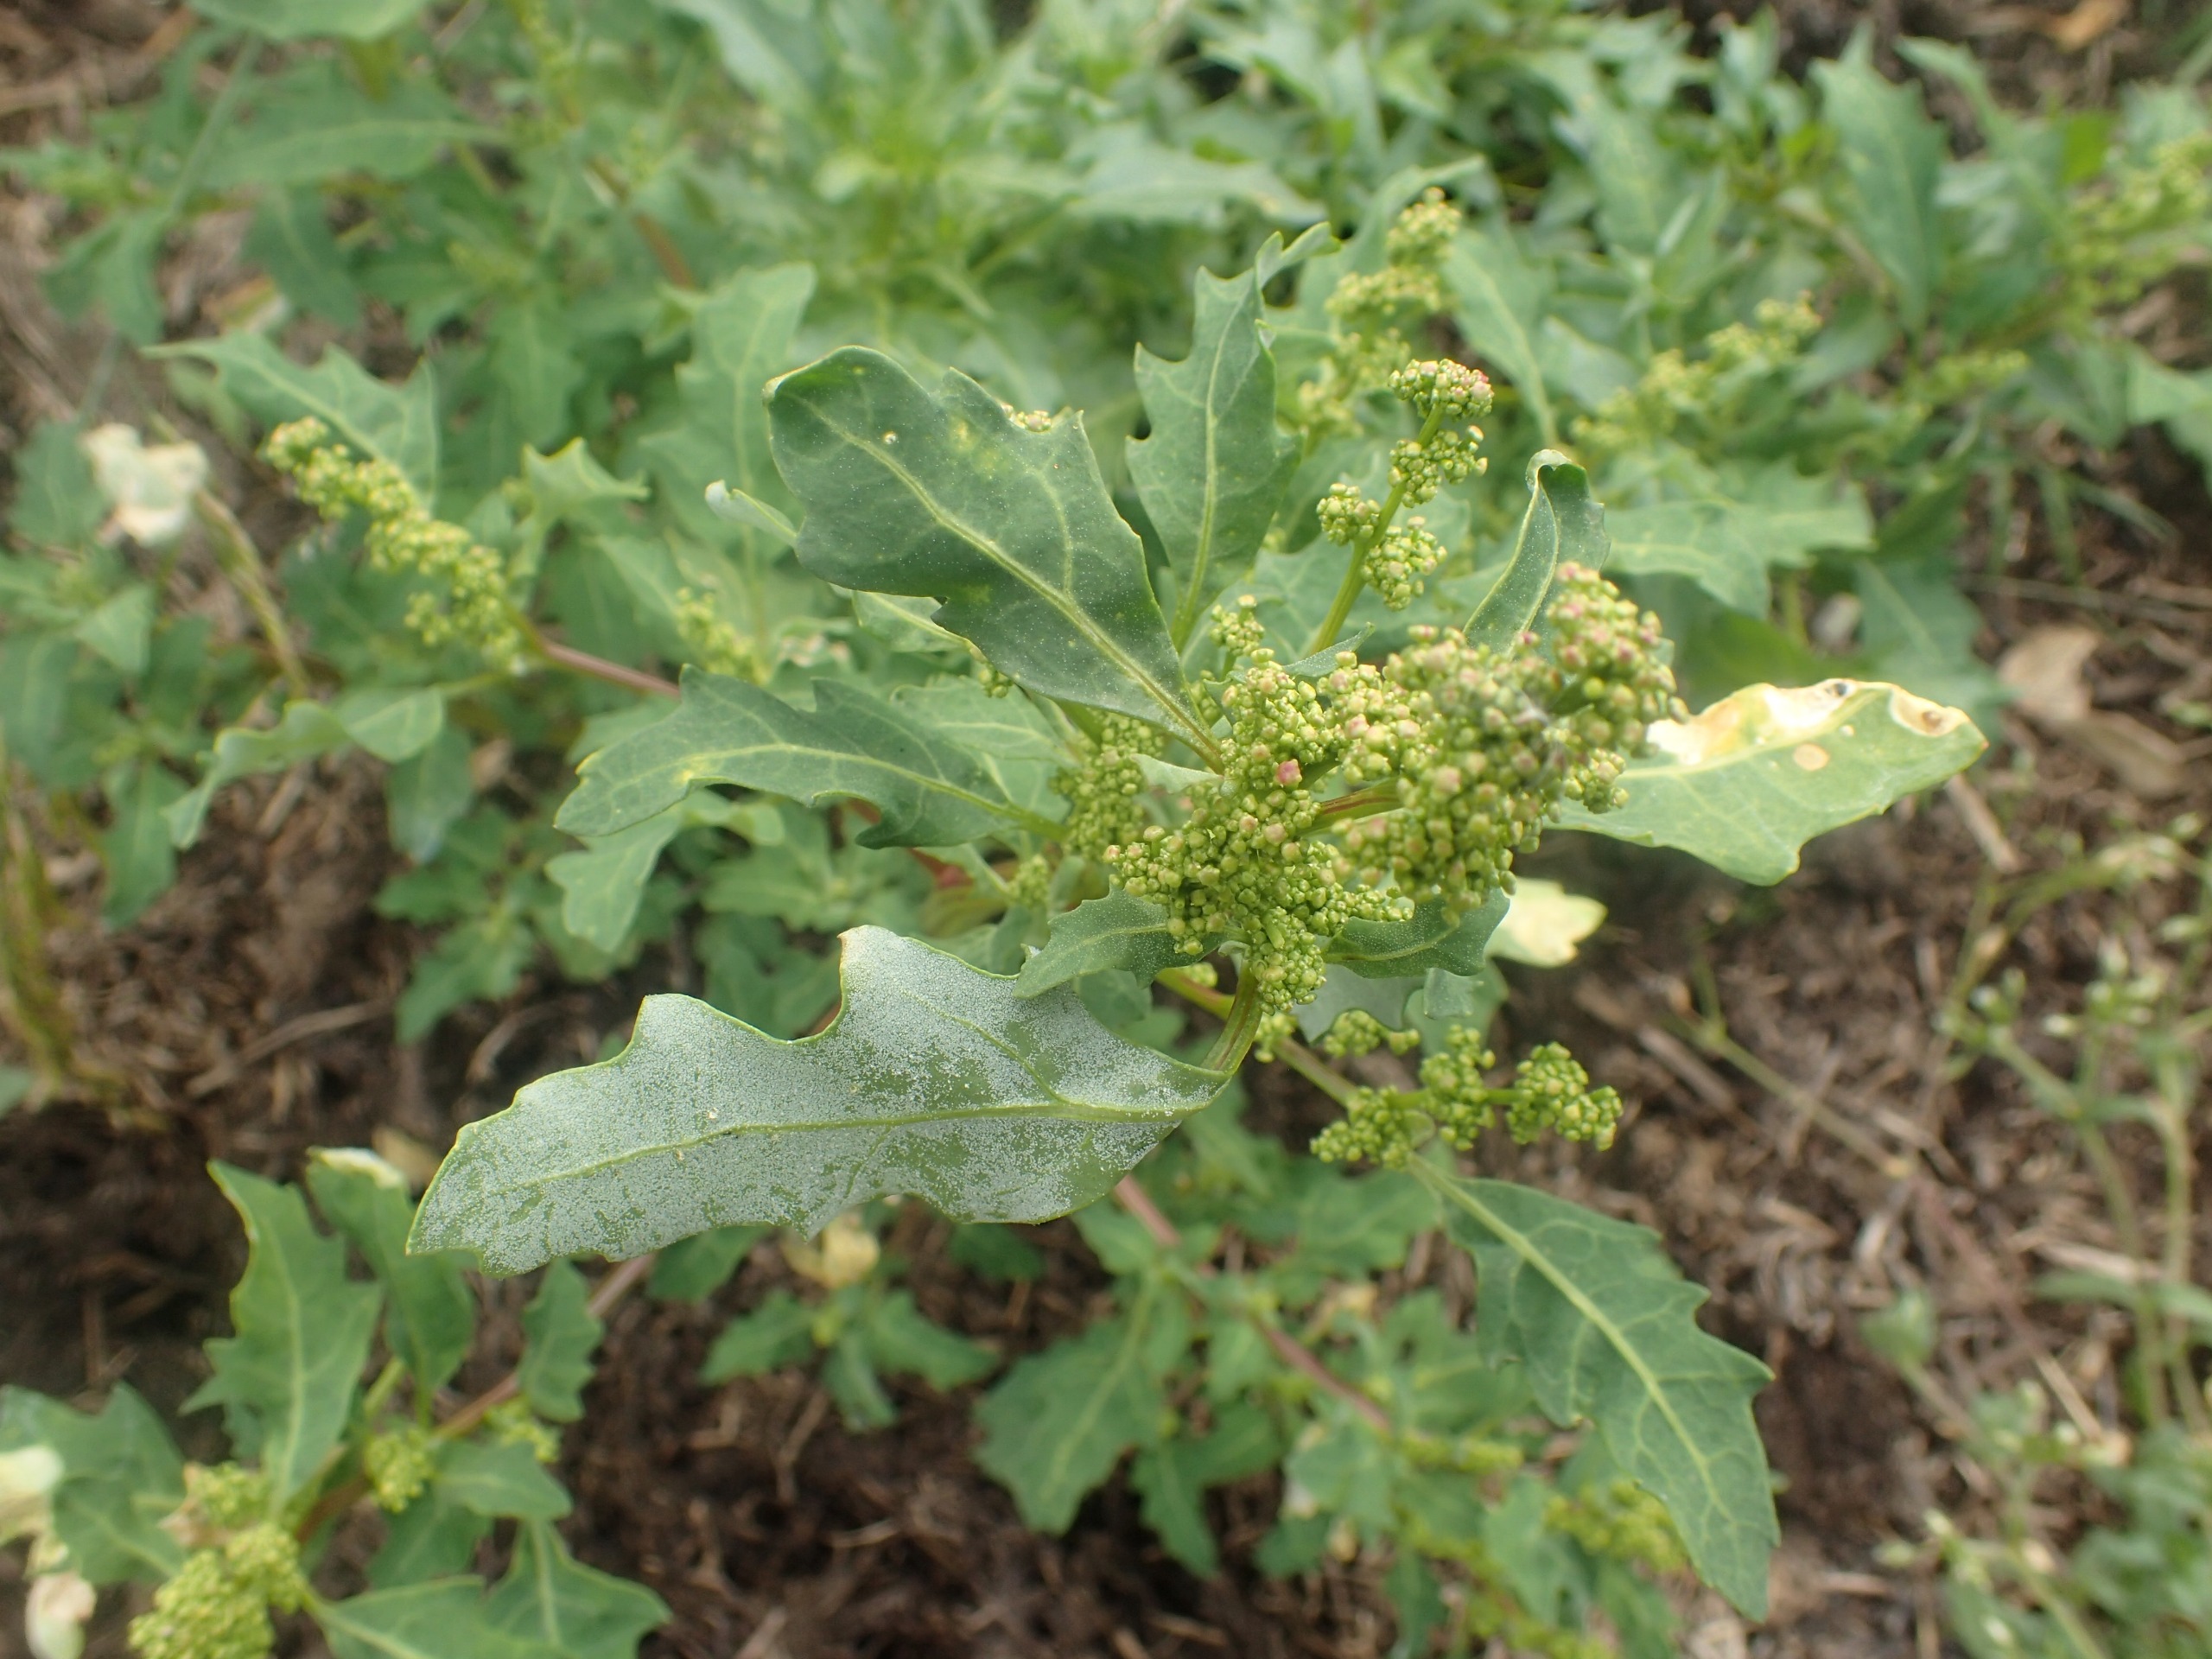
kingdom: Plantae
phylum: Tracheophyta
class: Magnoliopsida
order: Caryophyllales
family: Amaranthaceae
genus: Oxybasis
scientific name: Oxybasis glauca
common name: Blågrøn gåsefod
